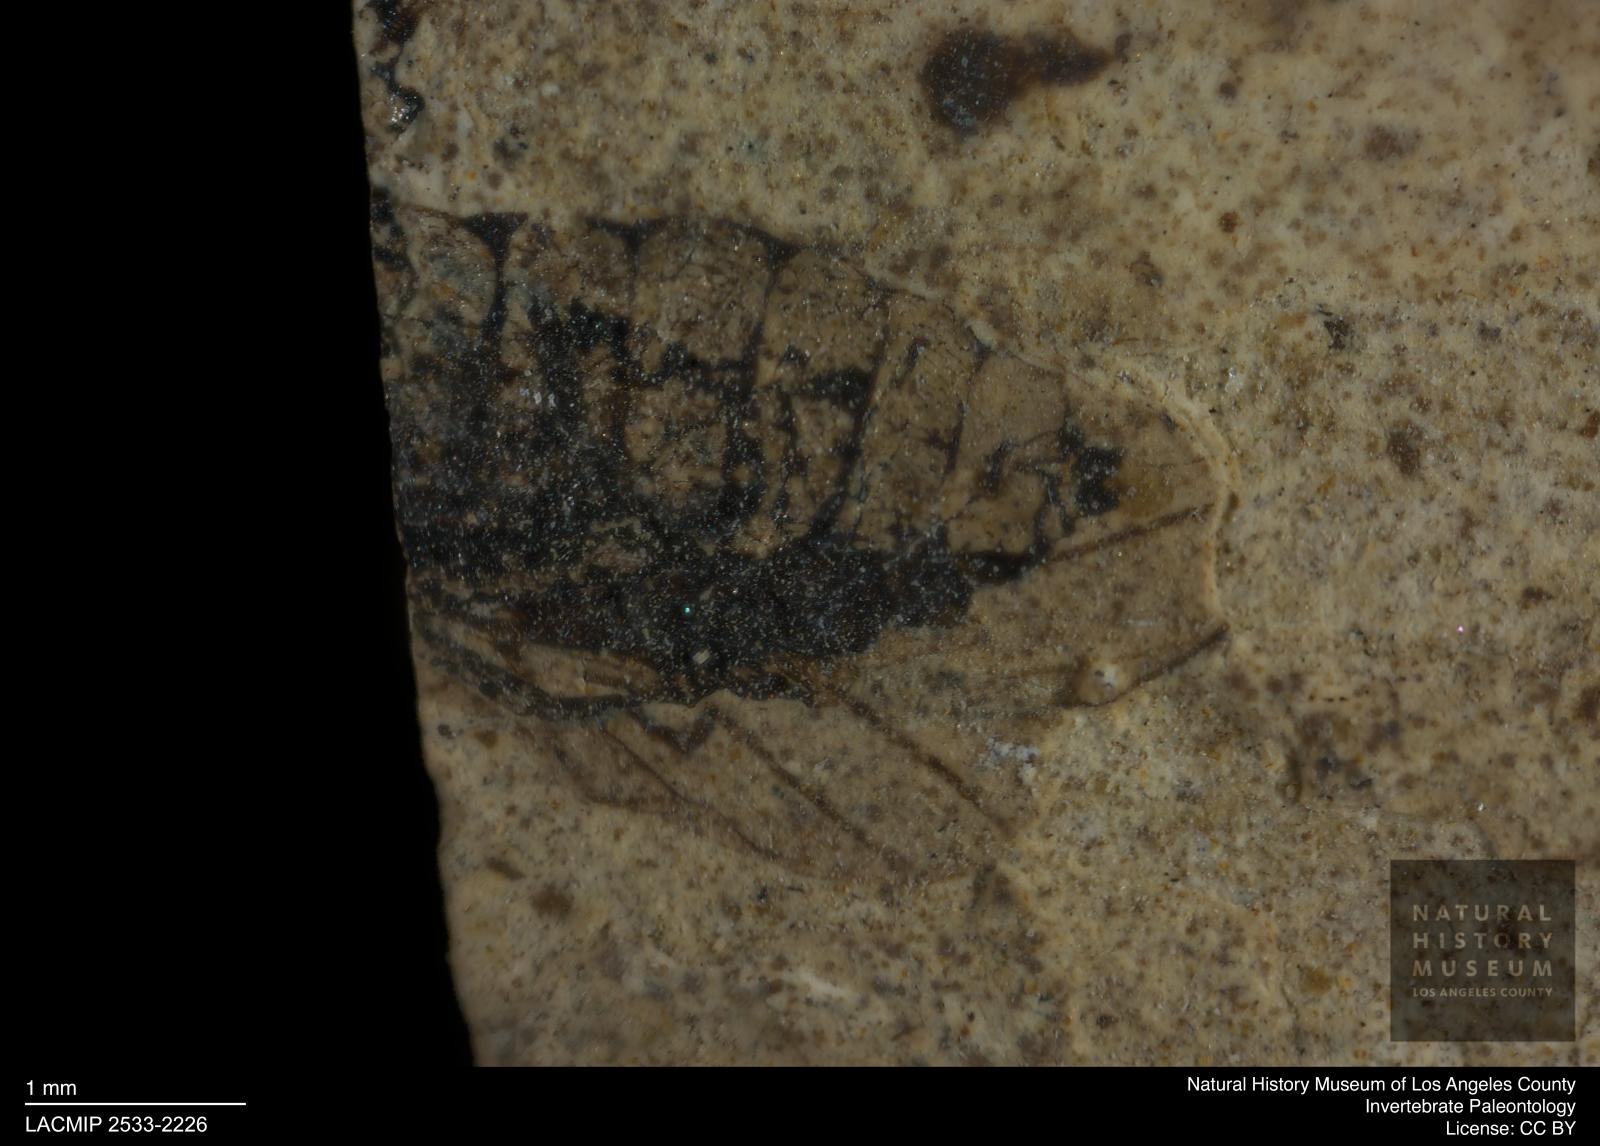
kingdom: Animalia
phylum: Arthropoda
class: Insecta
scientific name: Insecta
